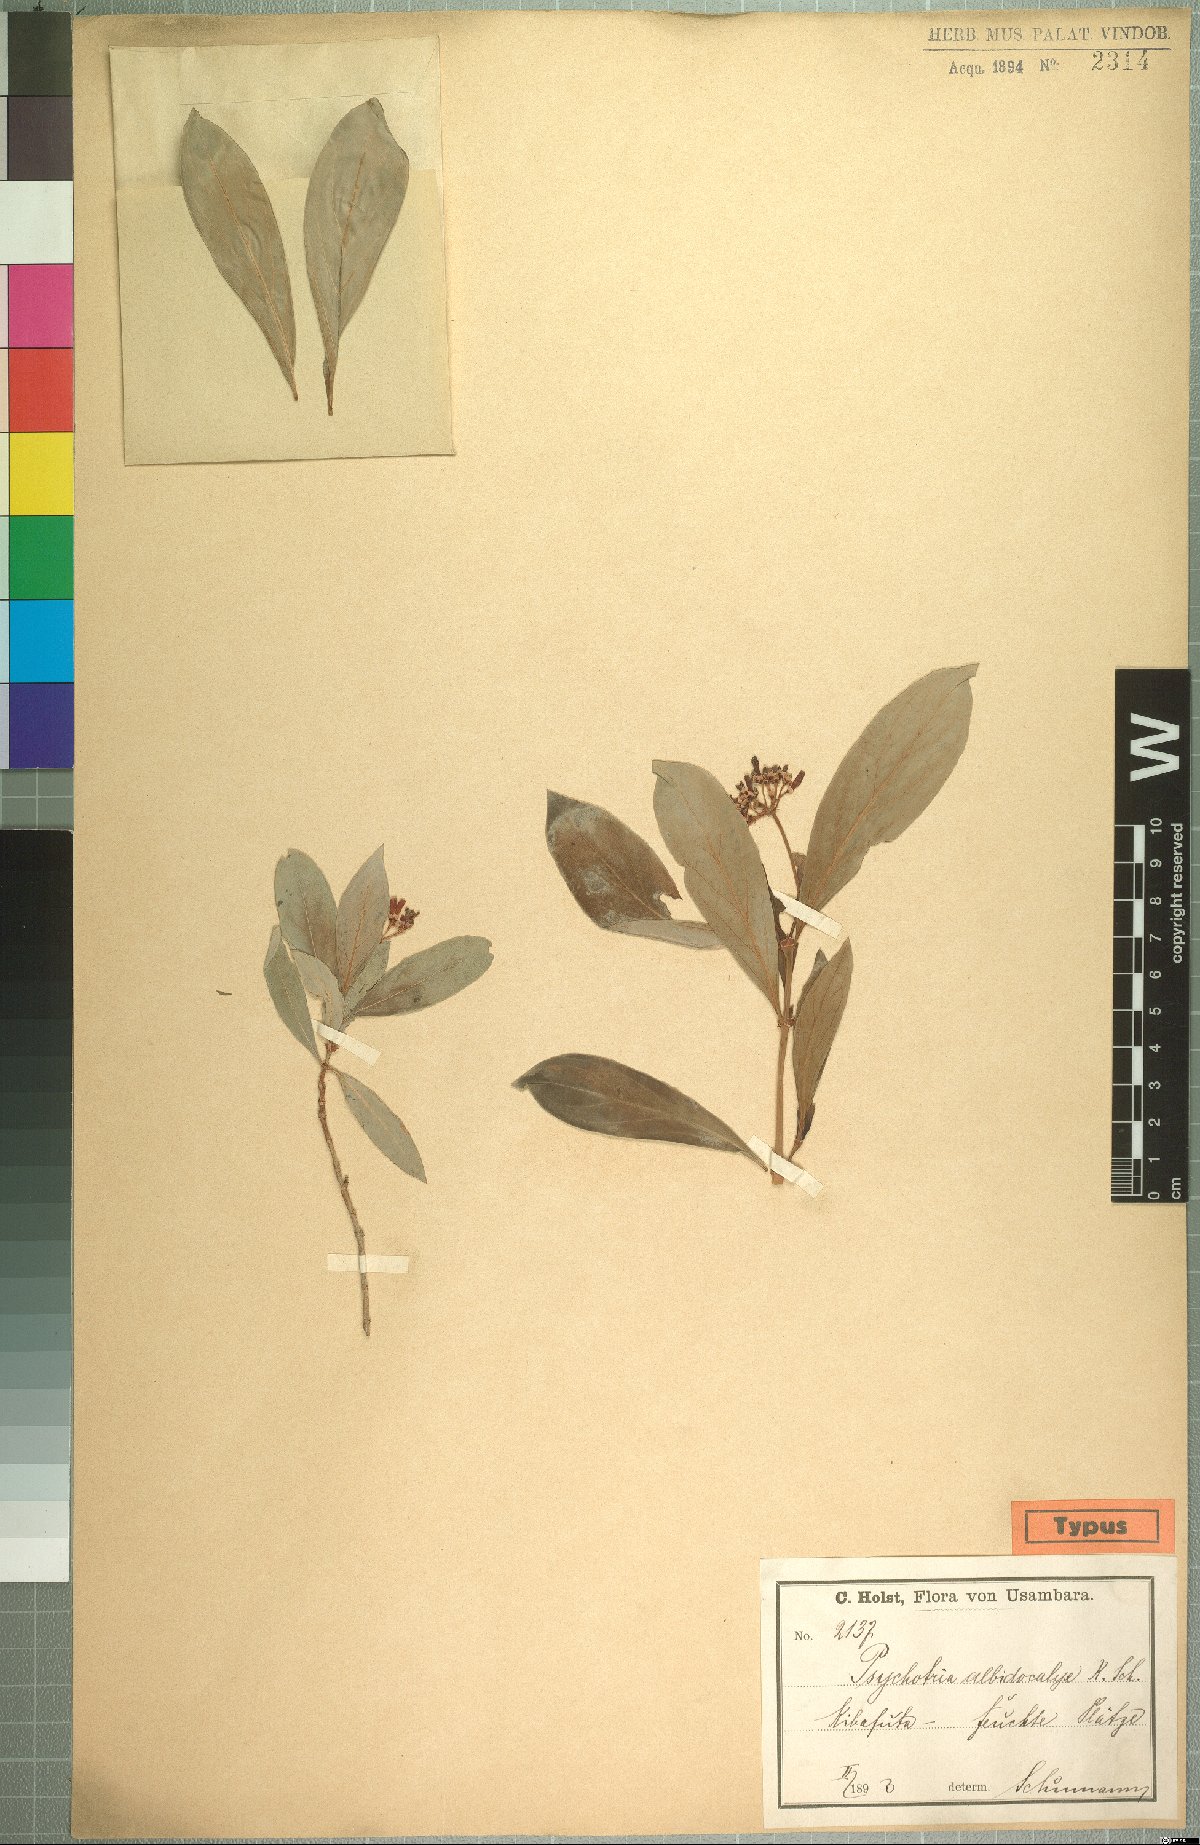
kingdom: Plantae
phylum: Tracheophyta
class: Magnoliopsida
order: Gentianales
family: Rubiaceae
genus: Psychotria
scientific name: Psychotria amboniana
